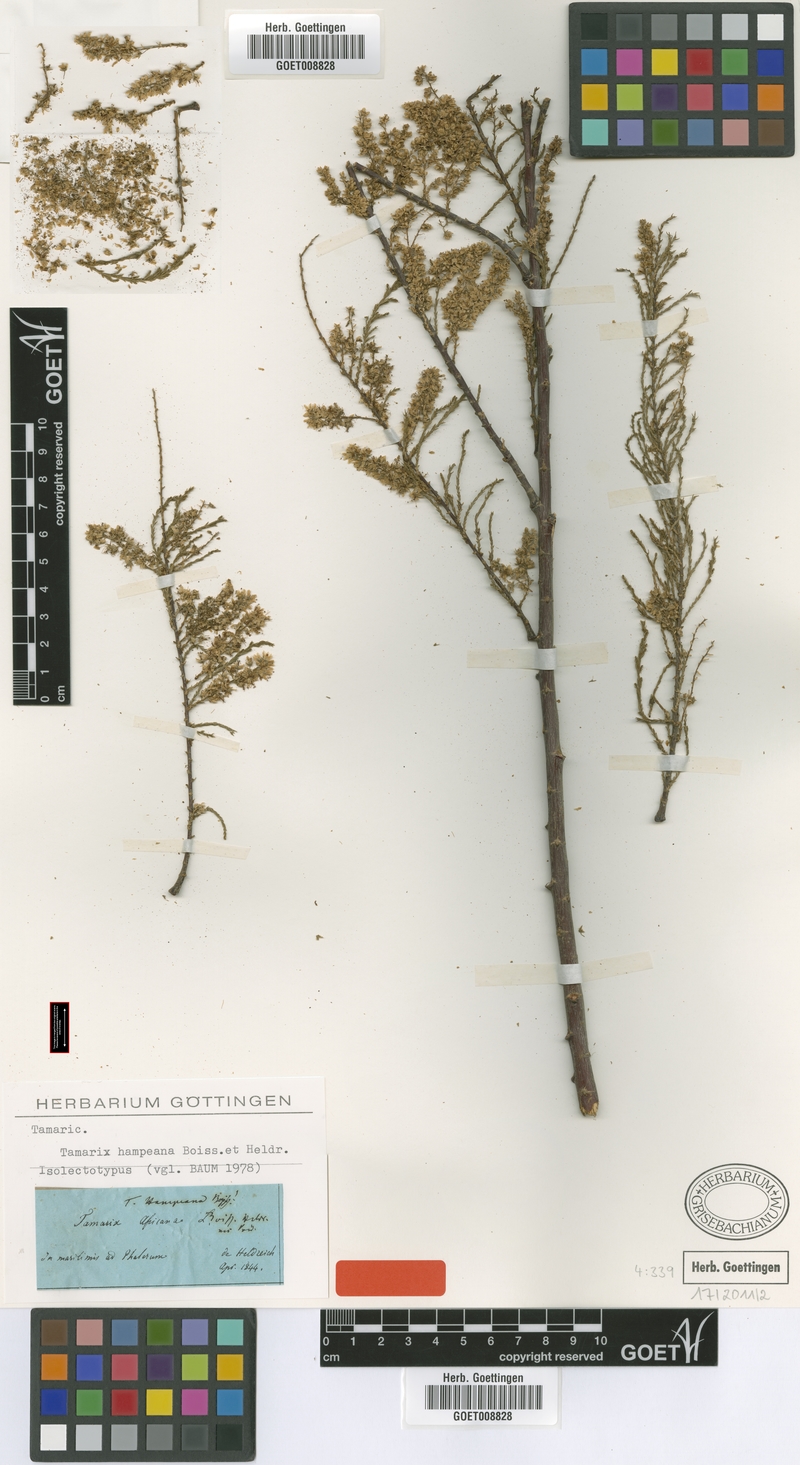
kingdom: Plantae
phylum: Tracheophyta
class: Magnoliopsida
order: Caryophyllales
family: Tamaricaceae
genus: Tamarix
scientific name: Tamarix hampeana
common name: Hampe’s tamarisk
